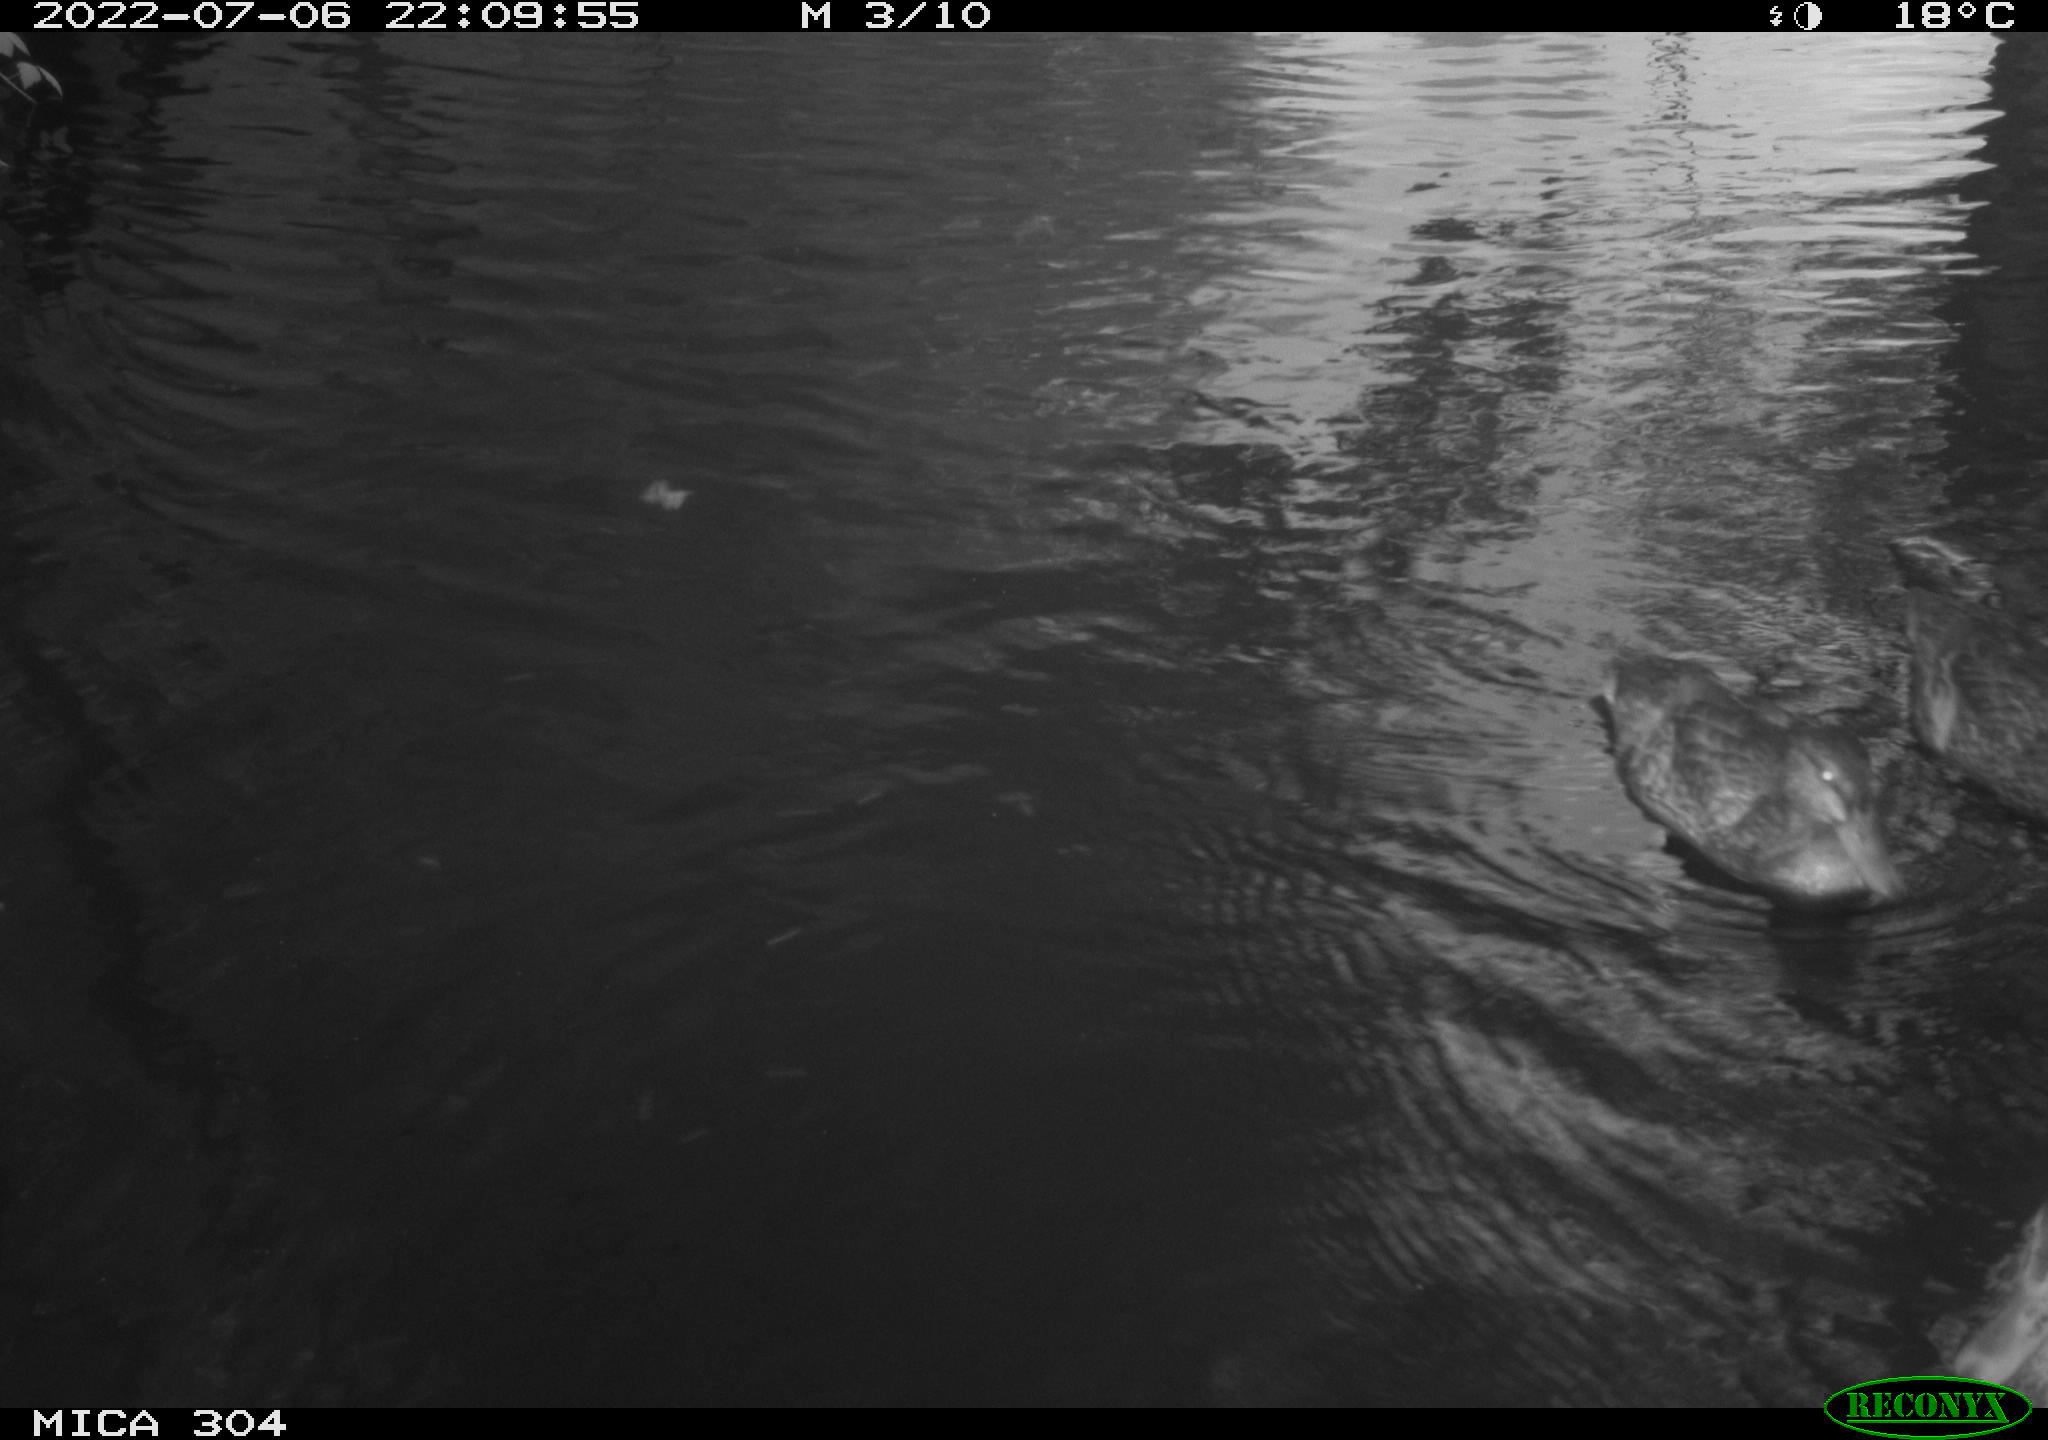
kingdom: Animalia
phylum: Chordata
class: Aves
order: Anseriformes
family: Anatidae
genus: Anas
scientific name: Anas platyrhynchos
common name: Mallard
